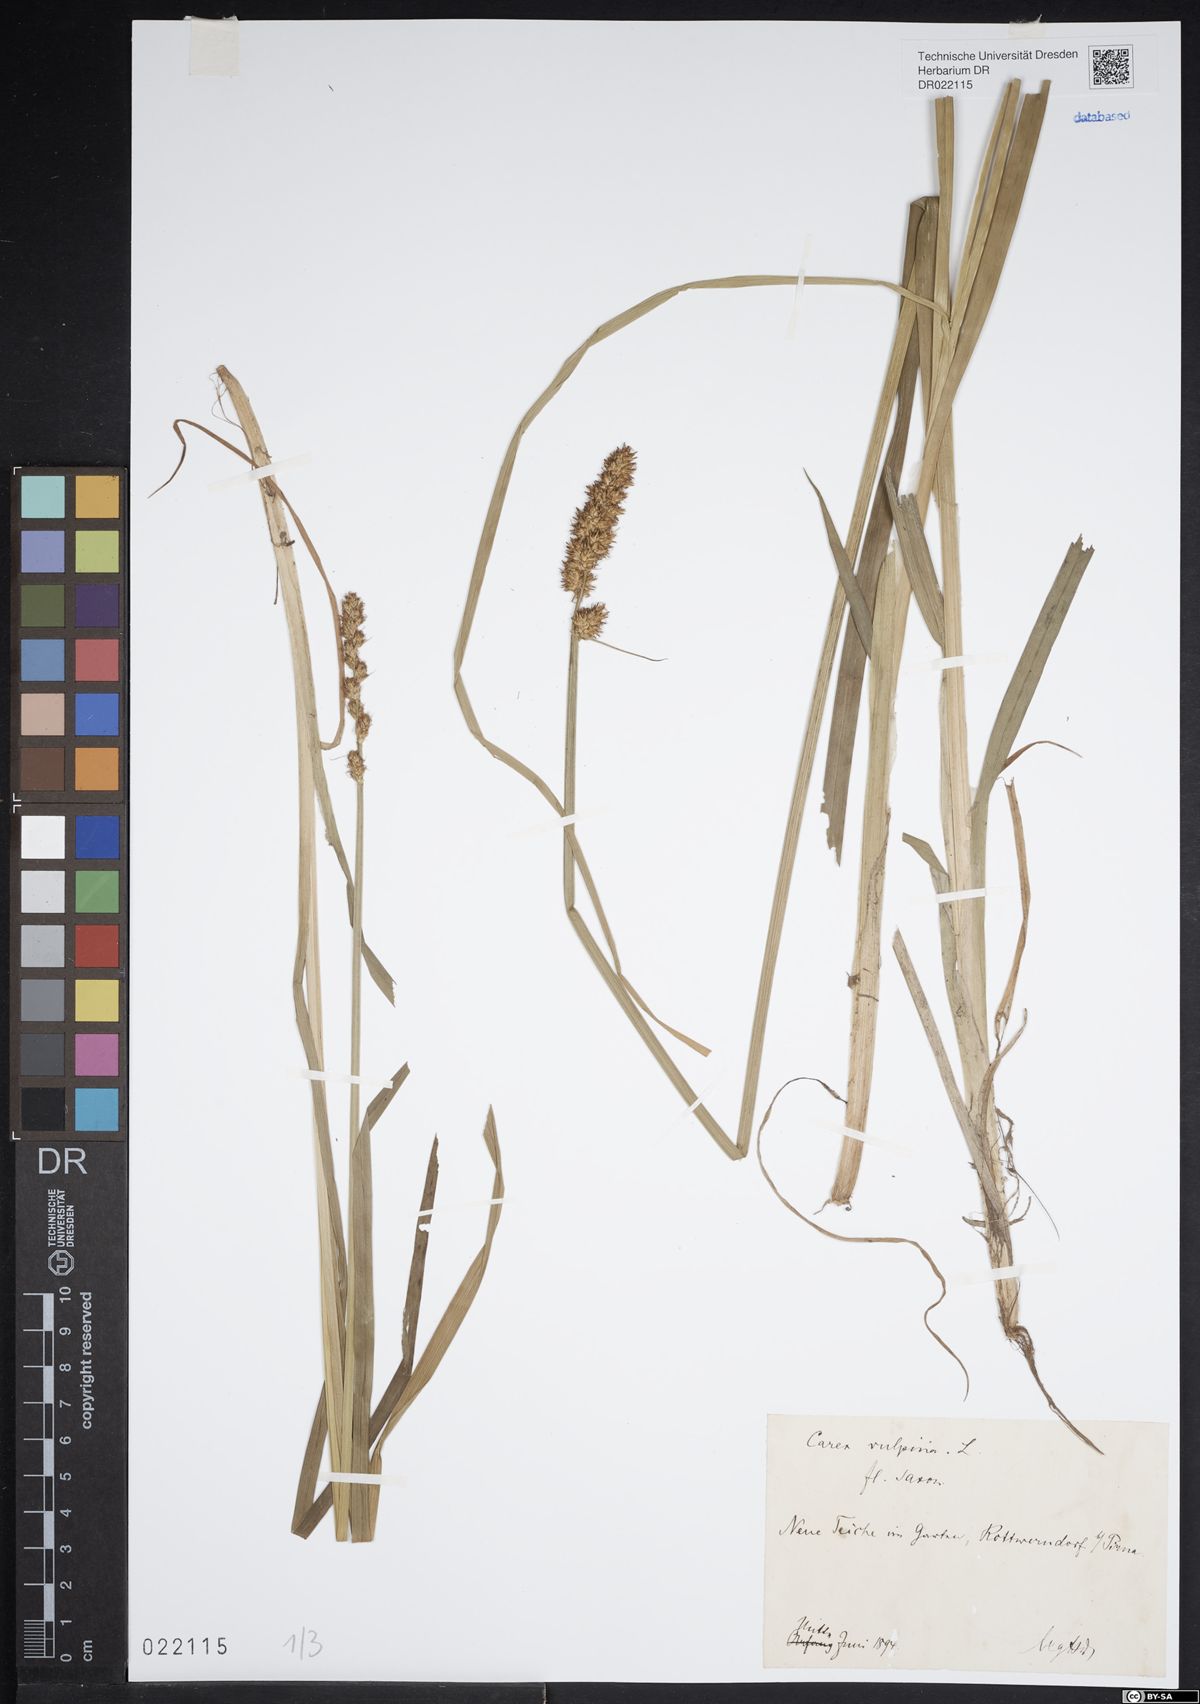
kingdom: Plantae
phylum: Tracheophyta
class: Liliopsida
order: Poales
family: Cyperaceae
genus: Carex
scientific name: Carex vulpina
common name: True fox-sedge
